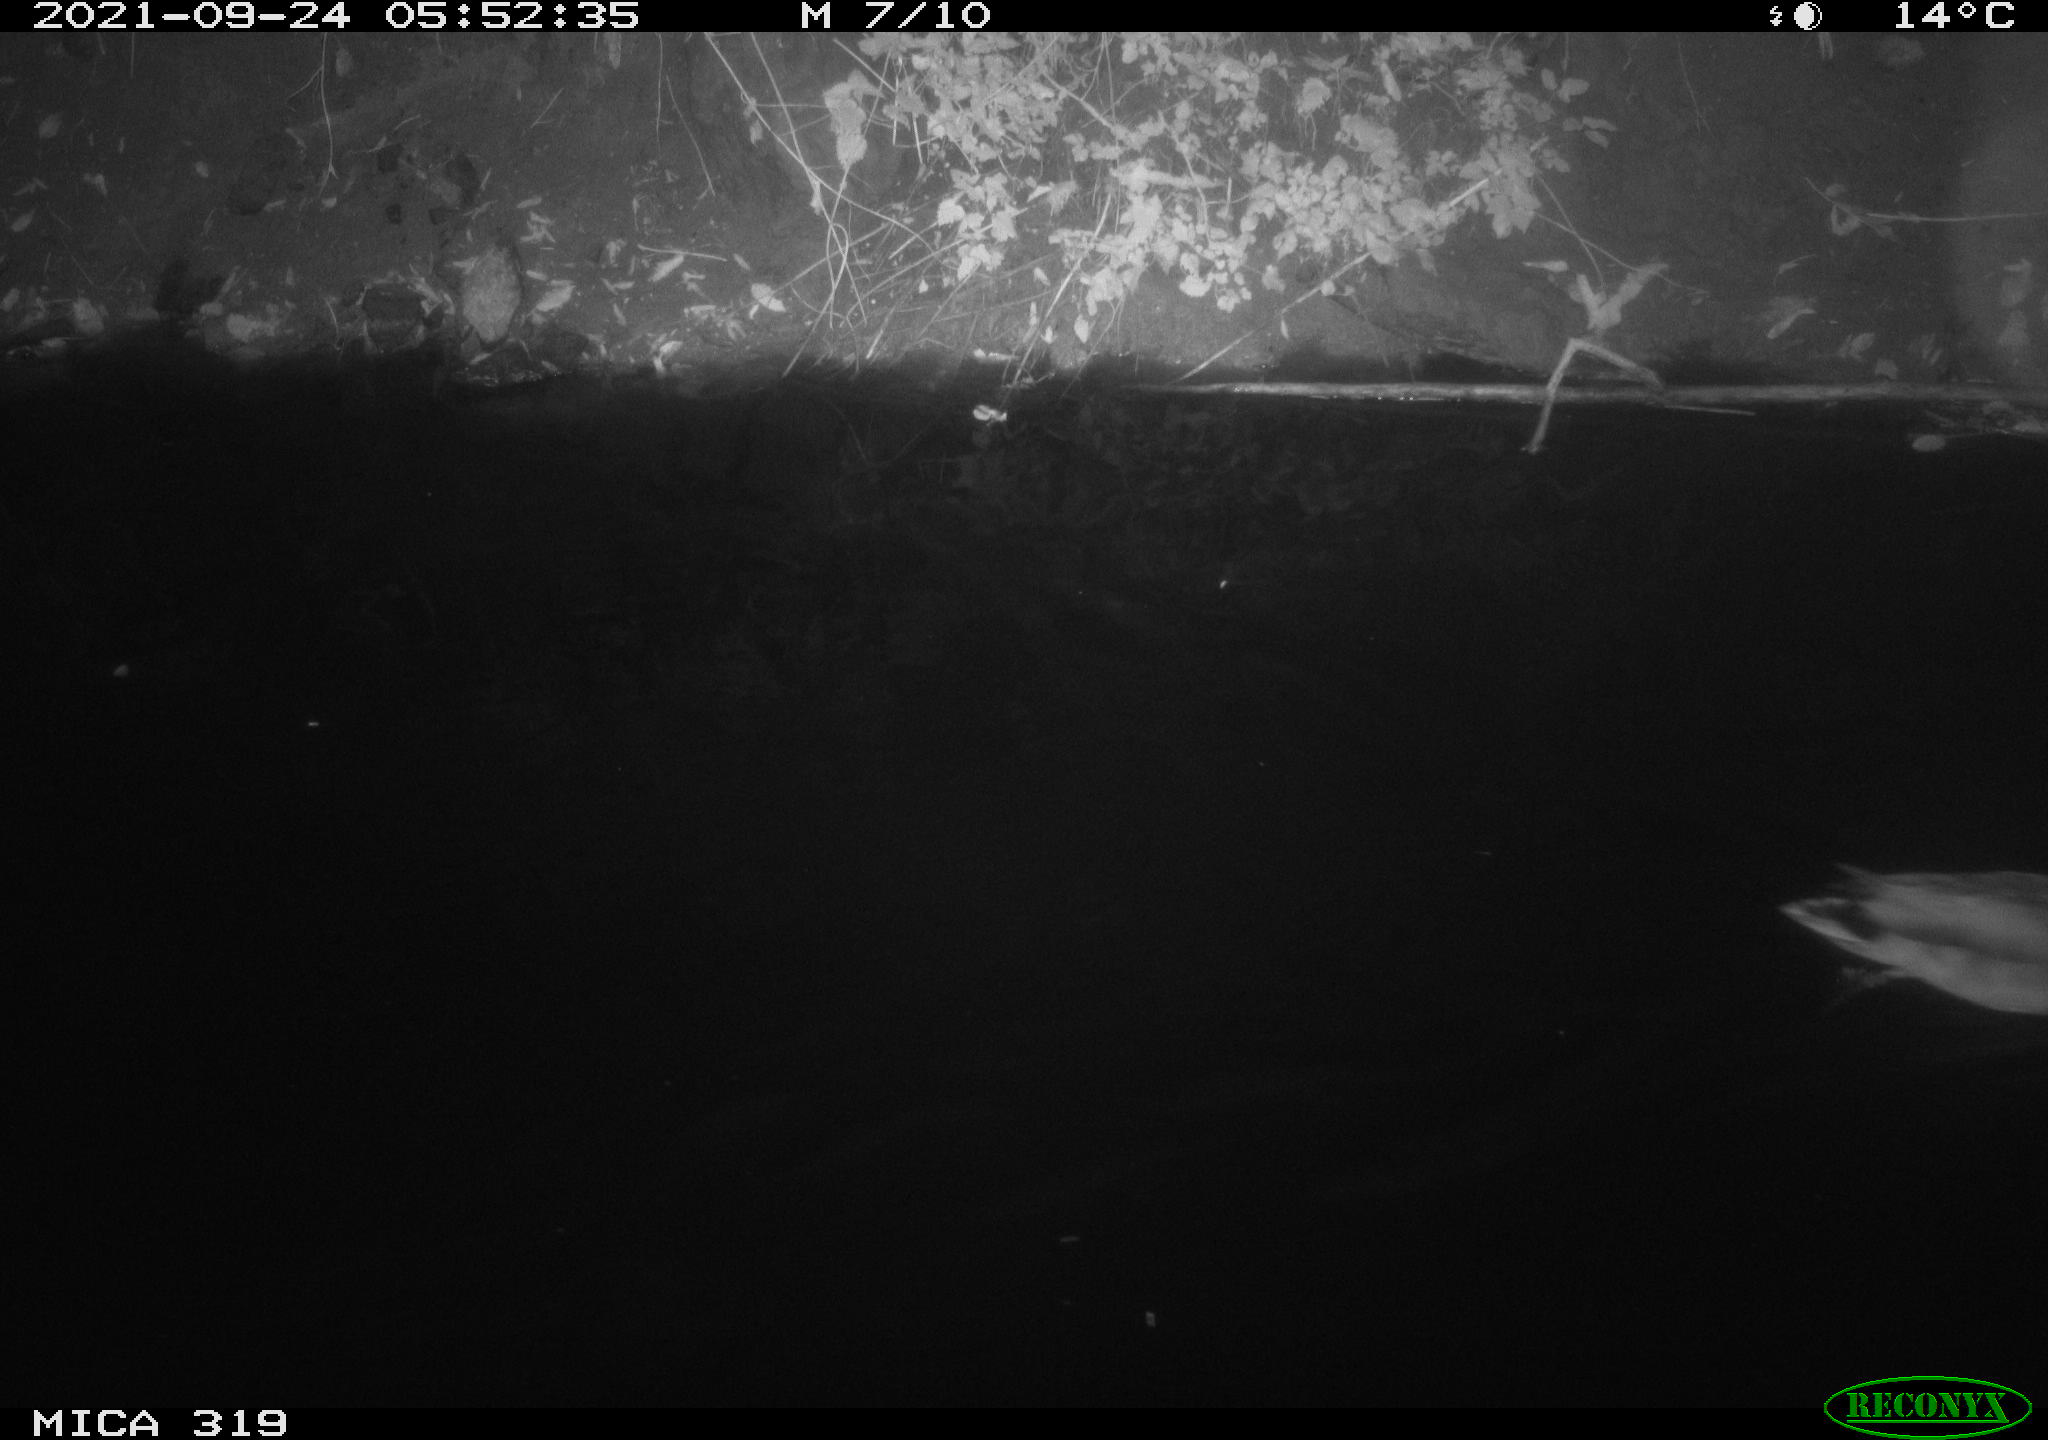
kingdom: Animalia
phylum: Chordata
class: Aves
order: Anseriformes
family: Anatidae
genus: Anas
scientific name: Anas platyrhynchos
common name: Mallard
